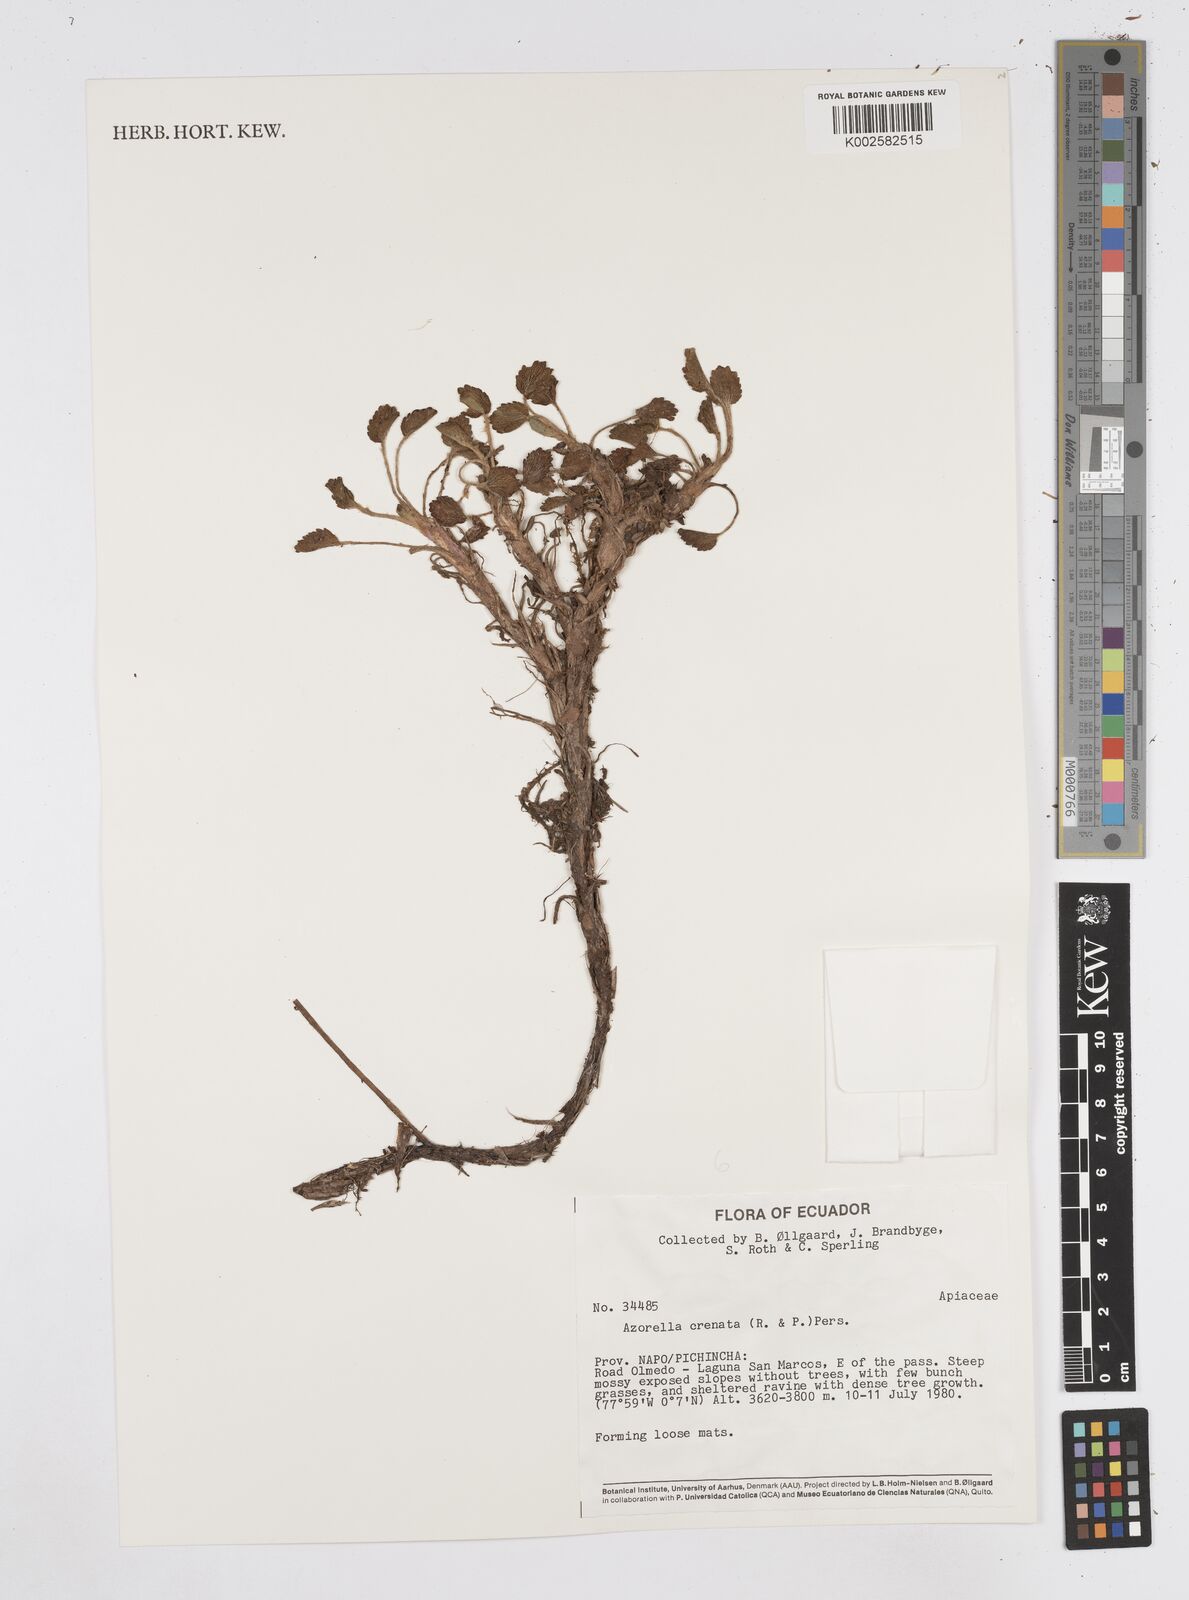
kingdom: Plantae
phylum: Tracheophyta
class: Magnoliopsida
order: Apiales
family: Apiaceae
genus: Azorella
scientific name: Azorella crenata
